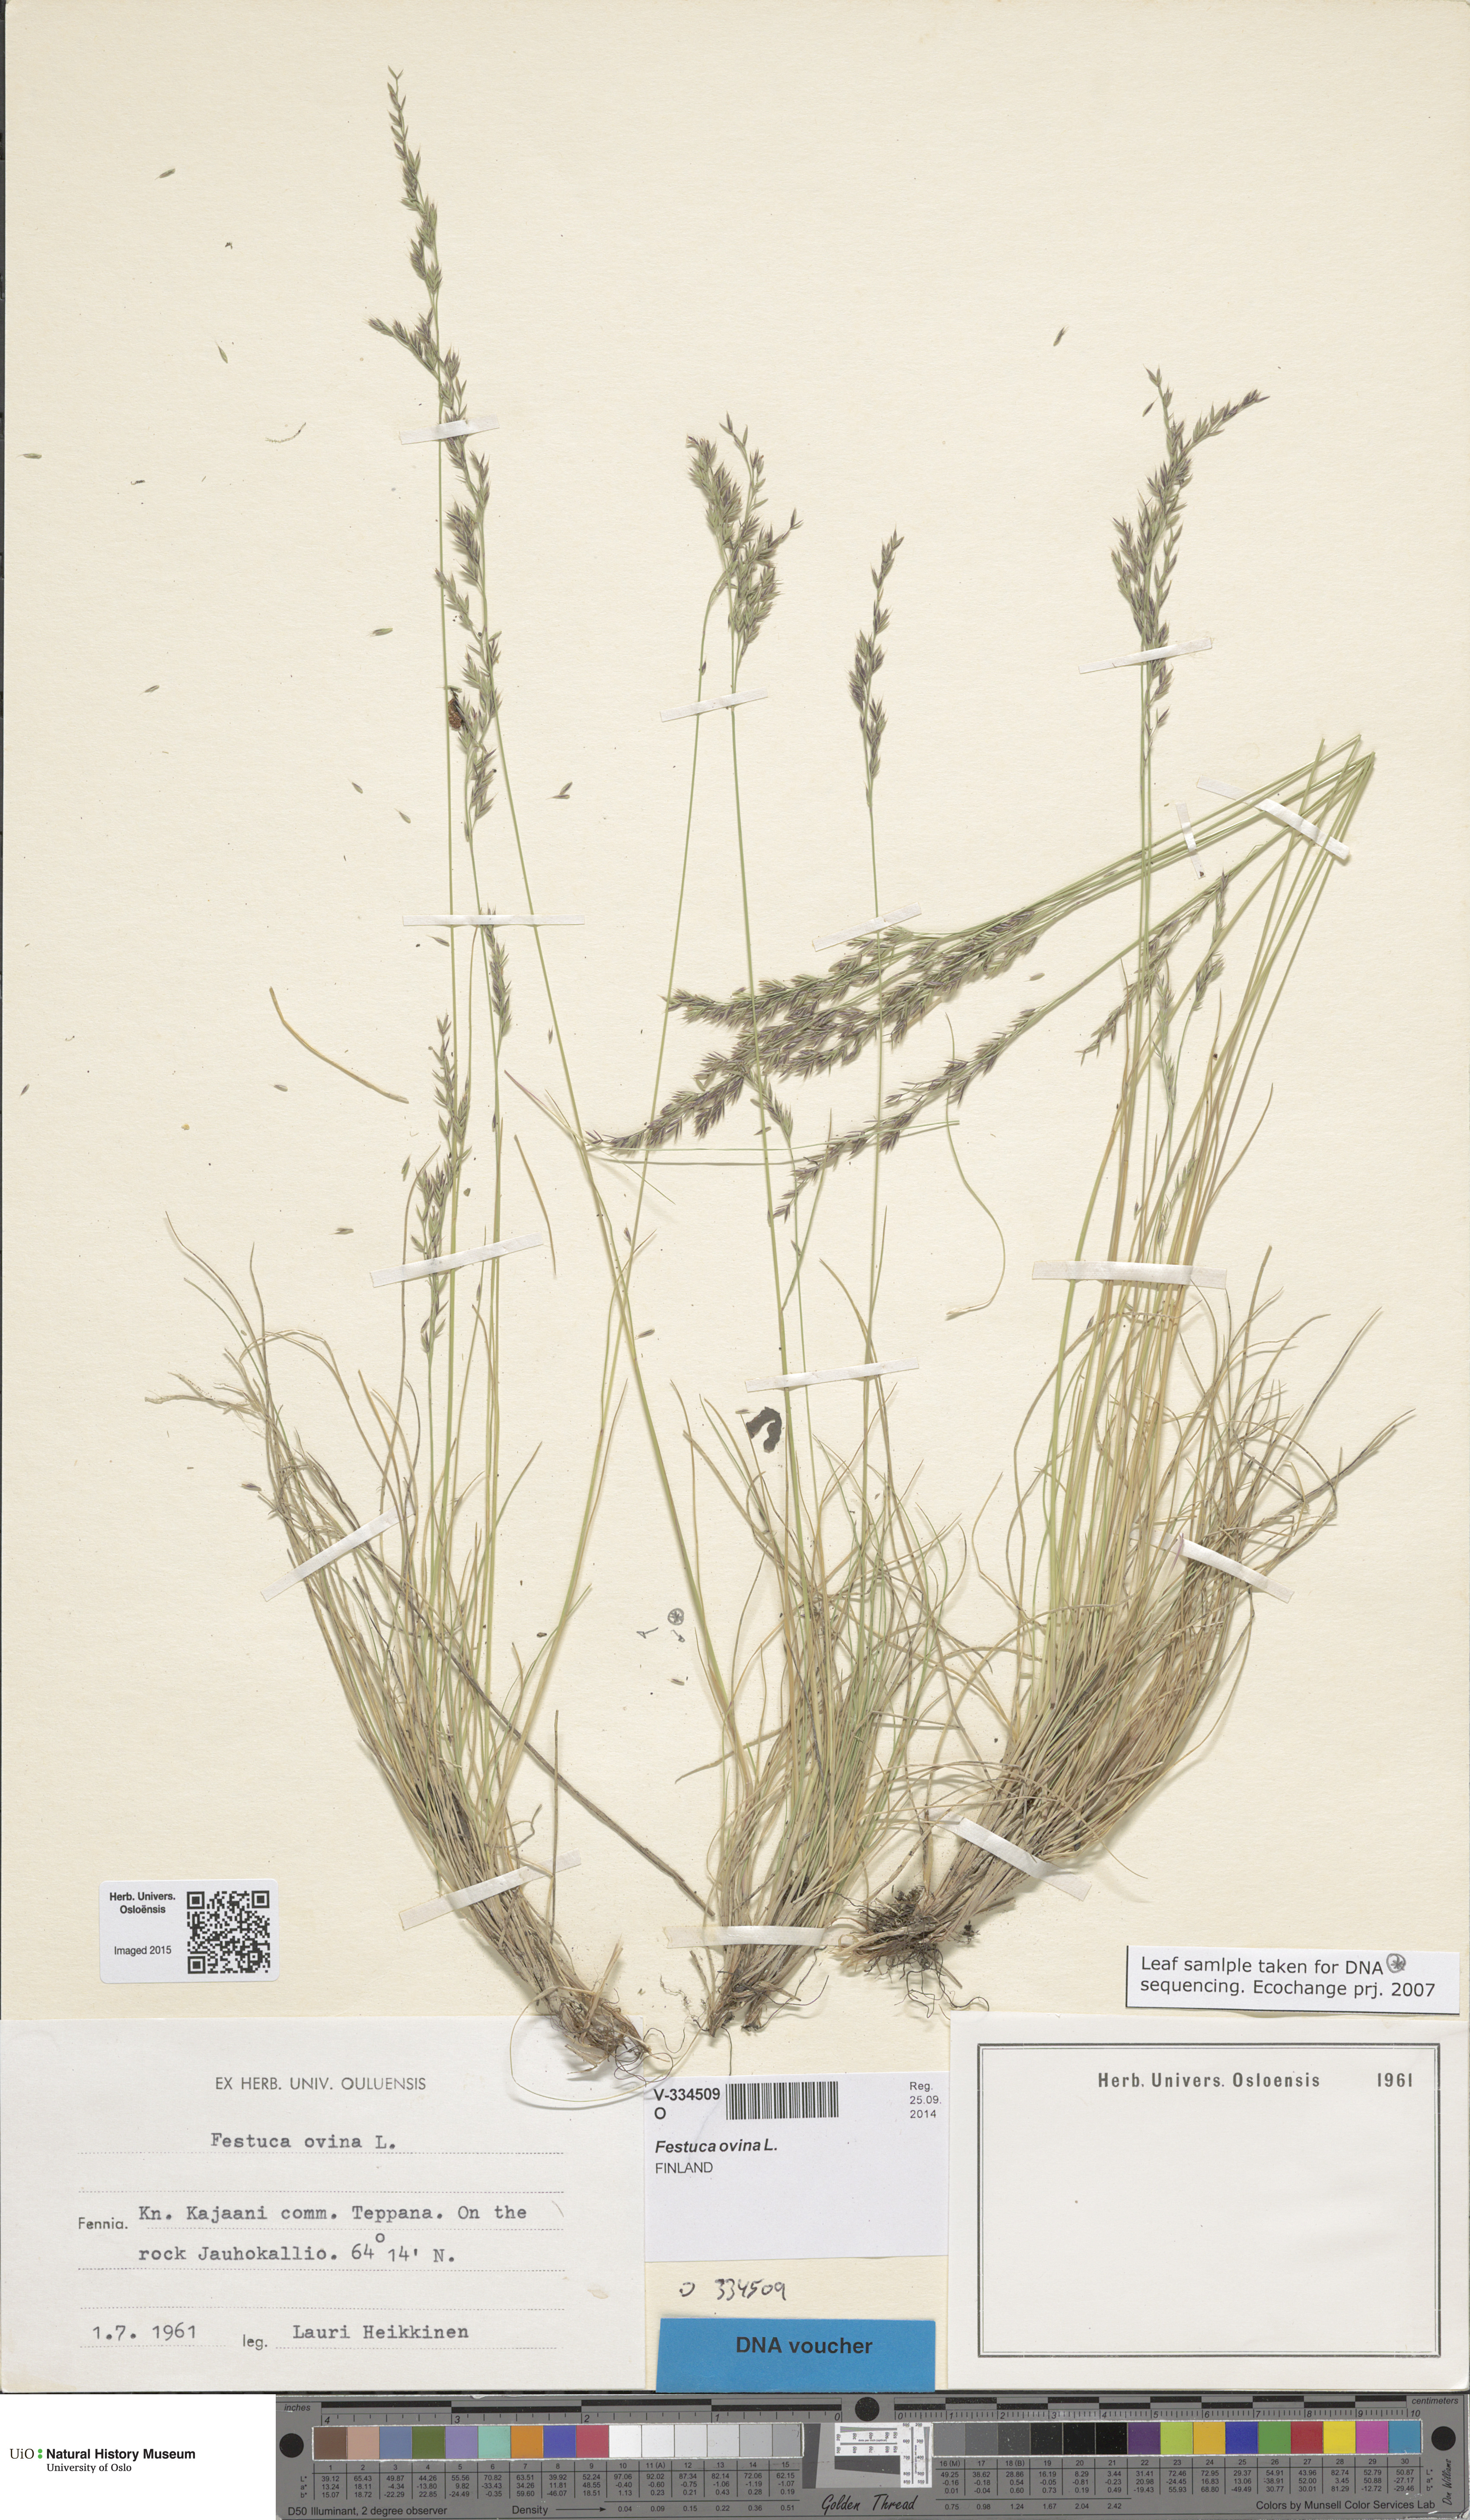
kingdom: Plantae
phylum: Tracheophyta
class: Liliopsida
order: Poales
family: Poaceae
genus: Festuca
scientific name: Festuca ovina
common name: Sheep fescue
